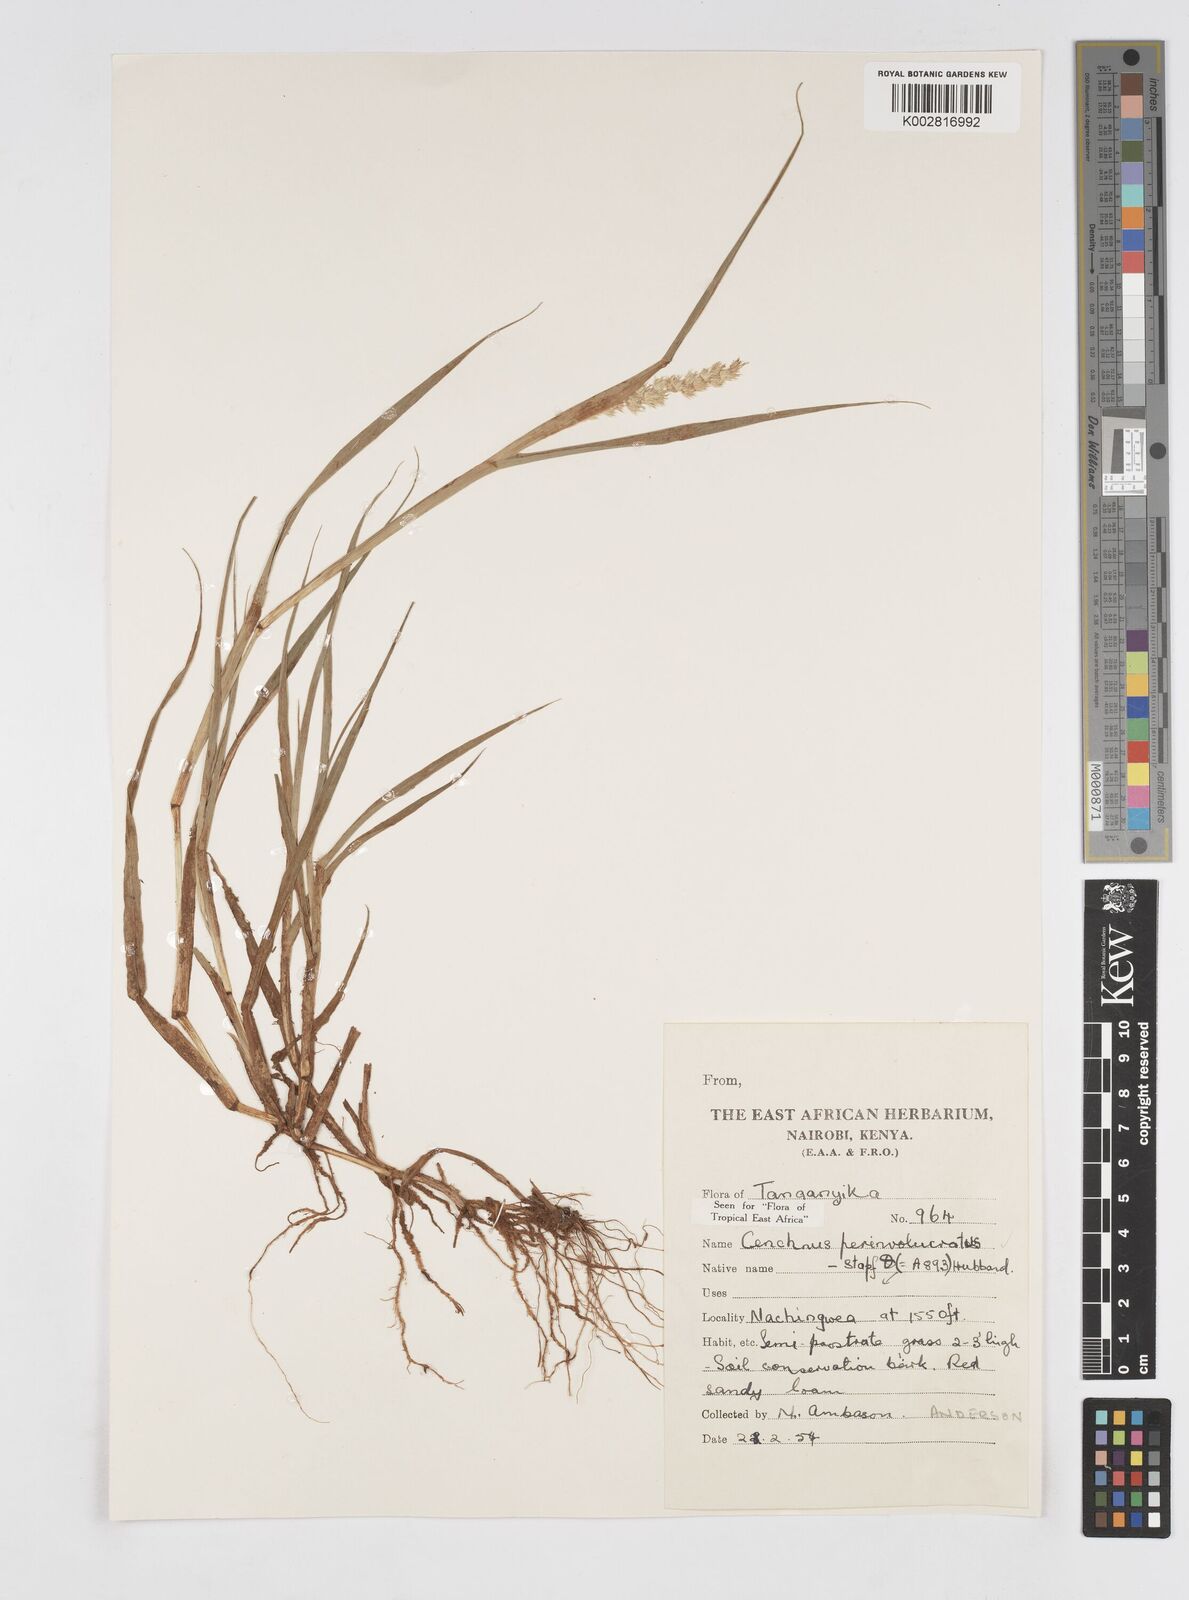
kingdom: Plantae
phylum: Tracheophyta
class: Liliopsida
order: Poales
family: Poaceae
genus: Cenchrus
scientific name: Cenchrus biflorus
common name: Indian sandbur
